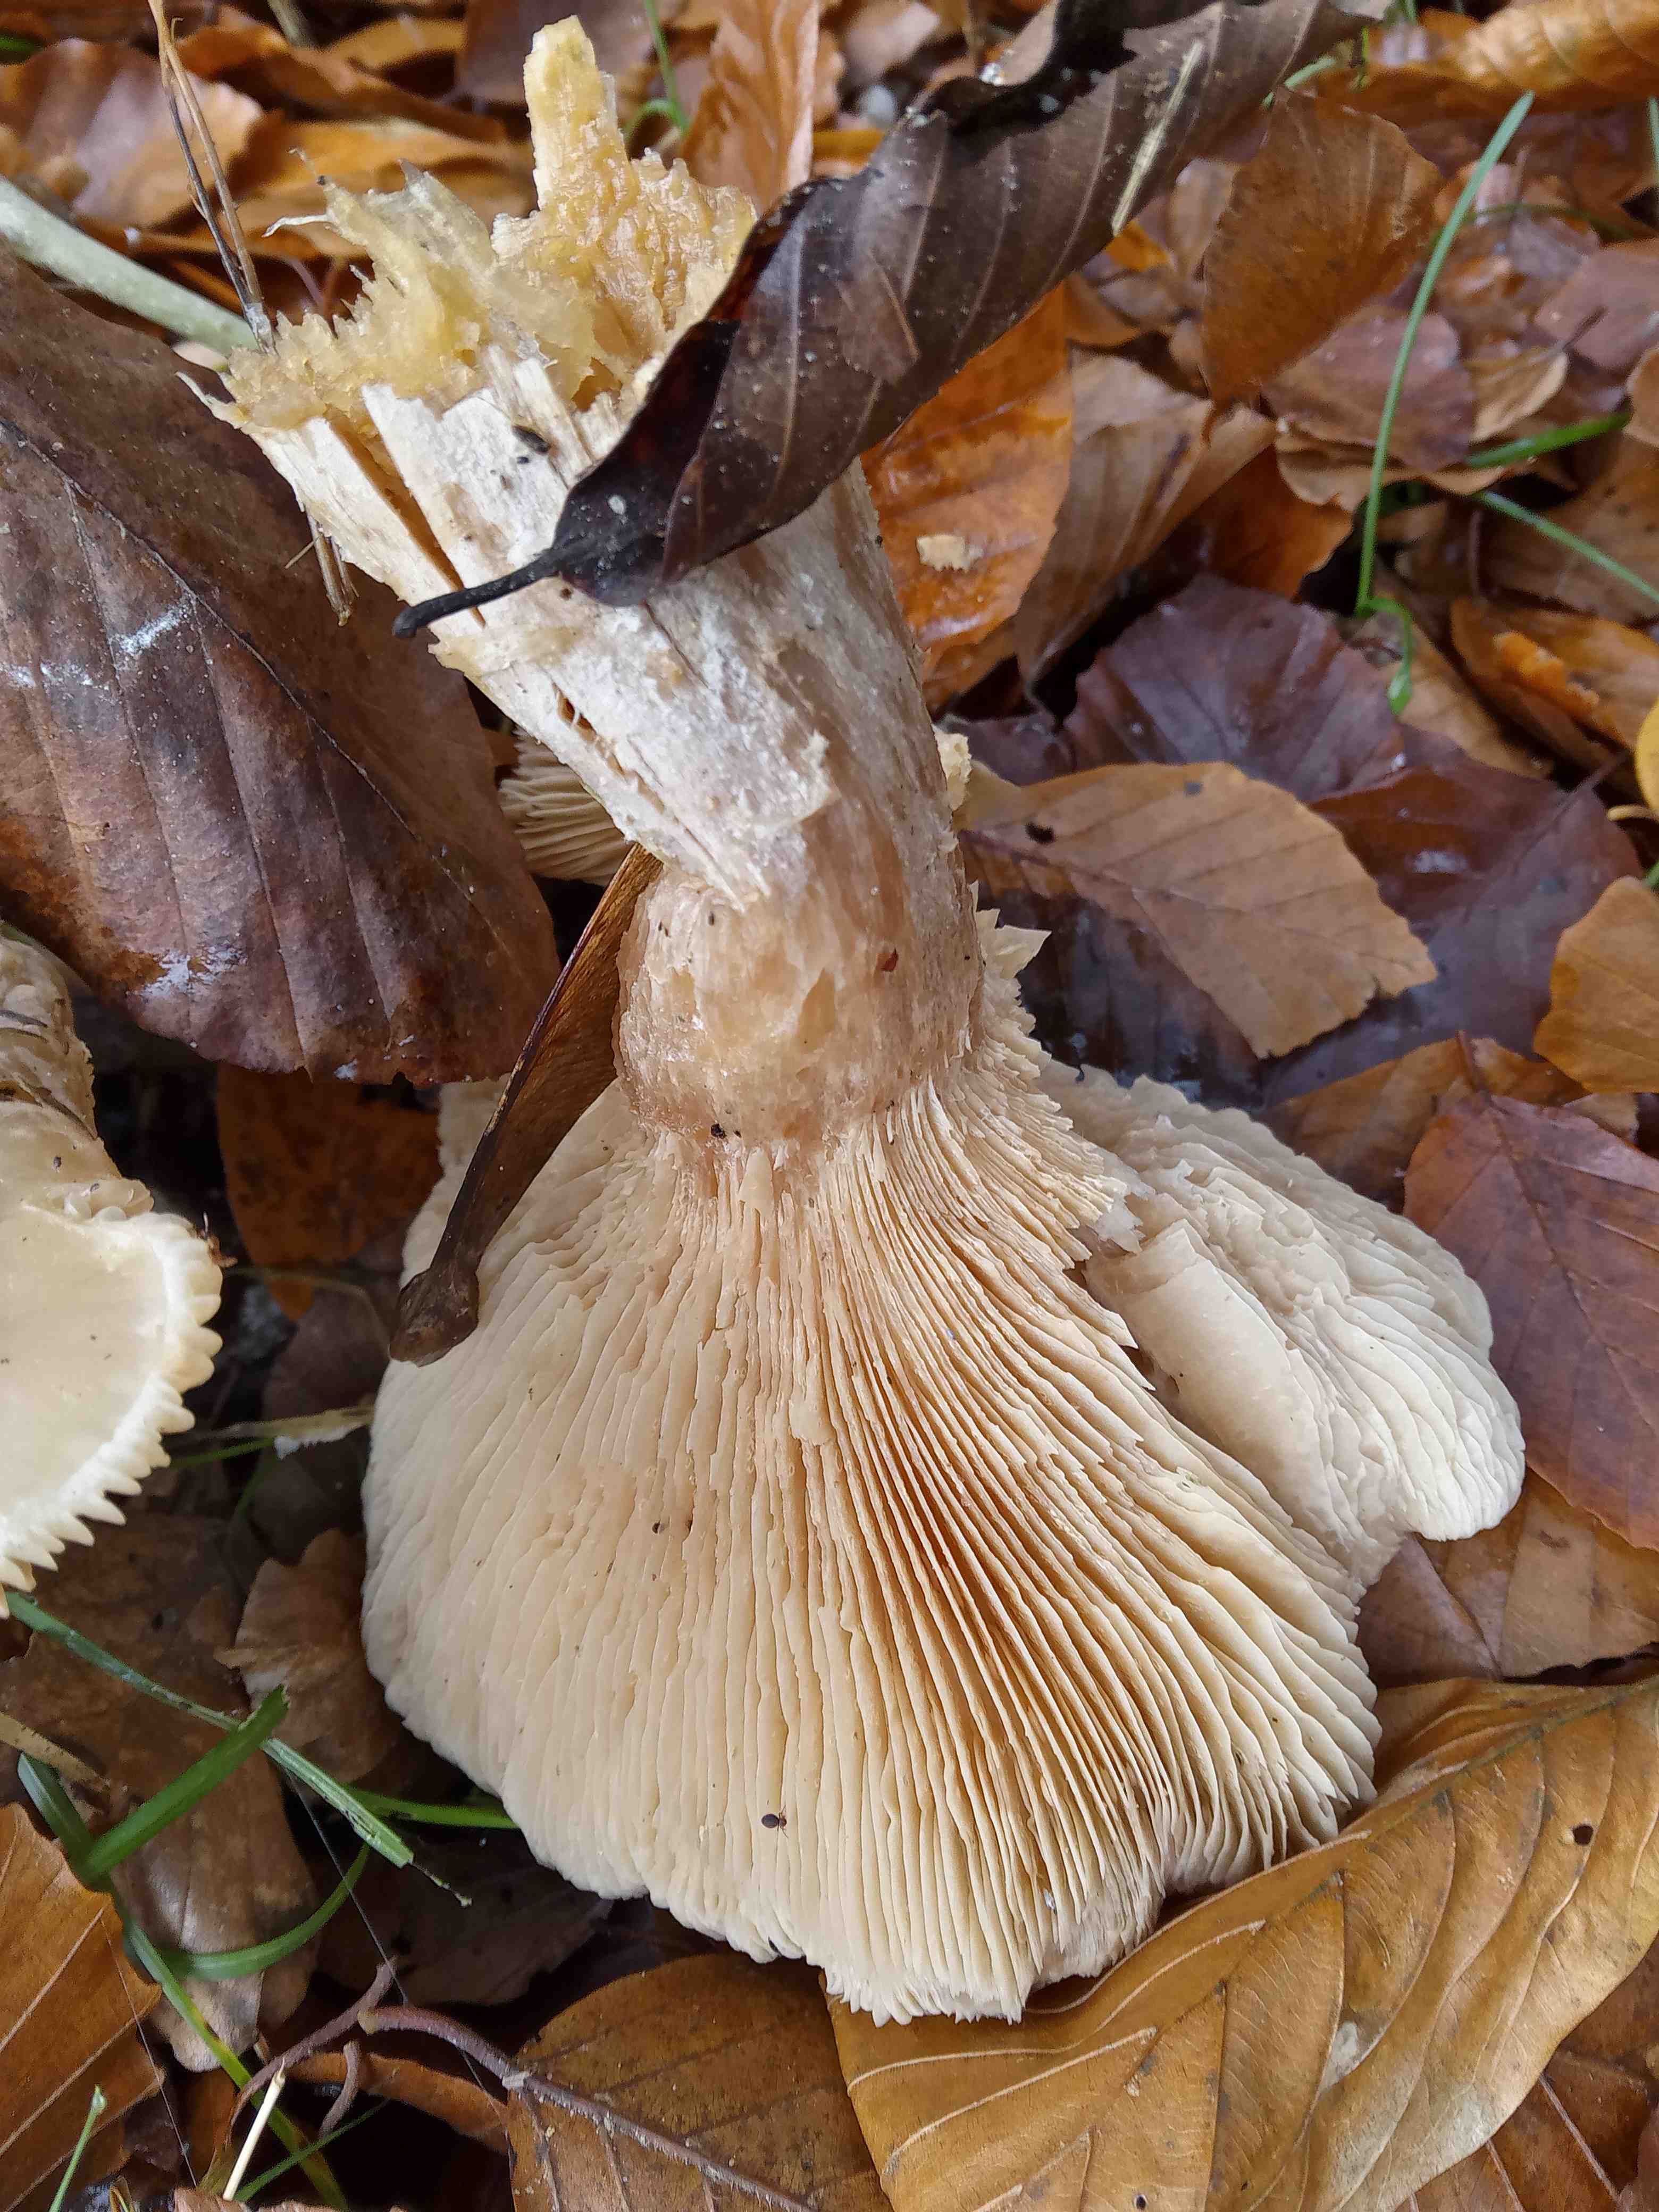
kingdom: Fungi
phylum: Basidiomycota
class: Agaricomycetes
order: Agaricales
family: Tricholomataceae
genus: Clitocybe
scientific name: Clitocybe nebularis
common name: tåge-tragthat
